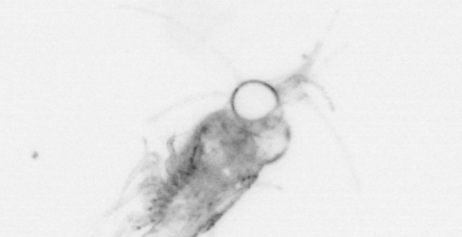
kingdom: Animalia
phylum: Chaetognatha
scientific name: Chaetognatha
